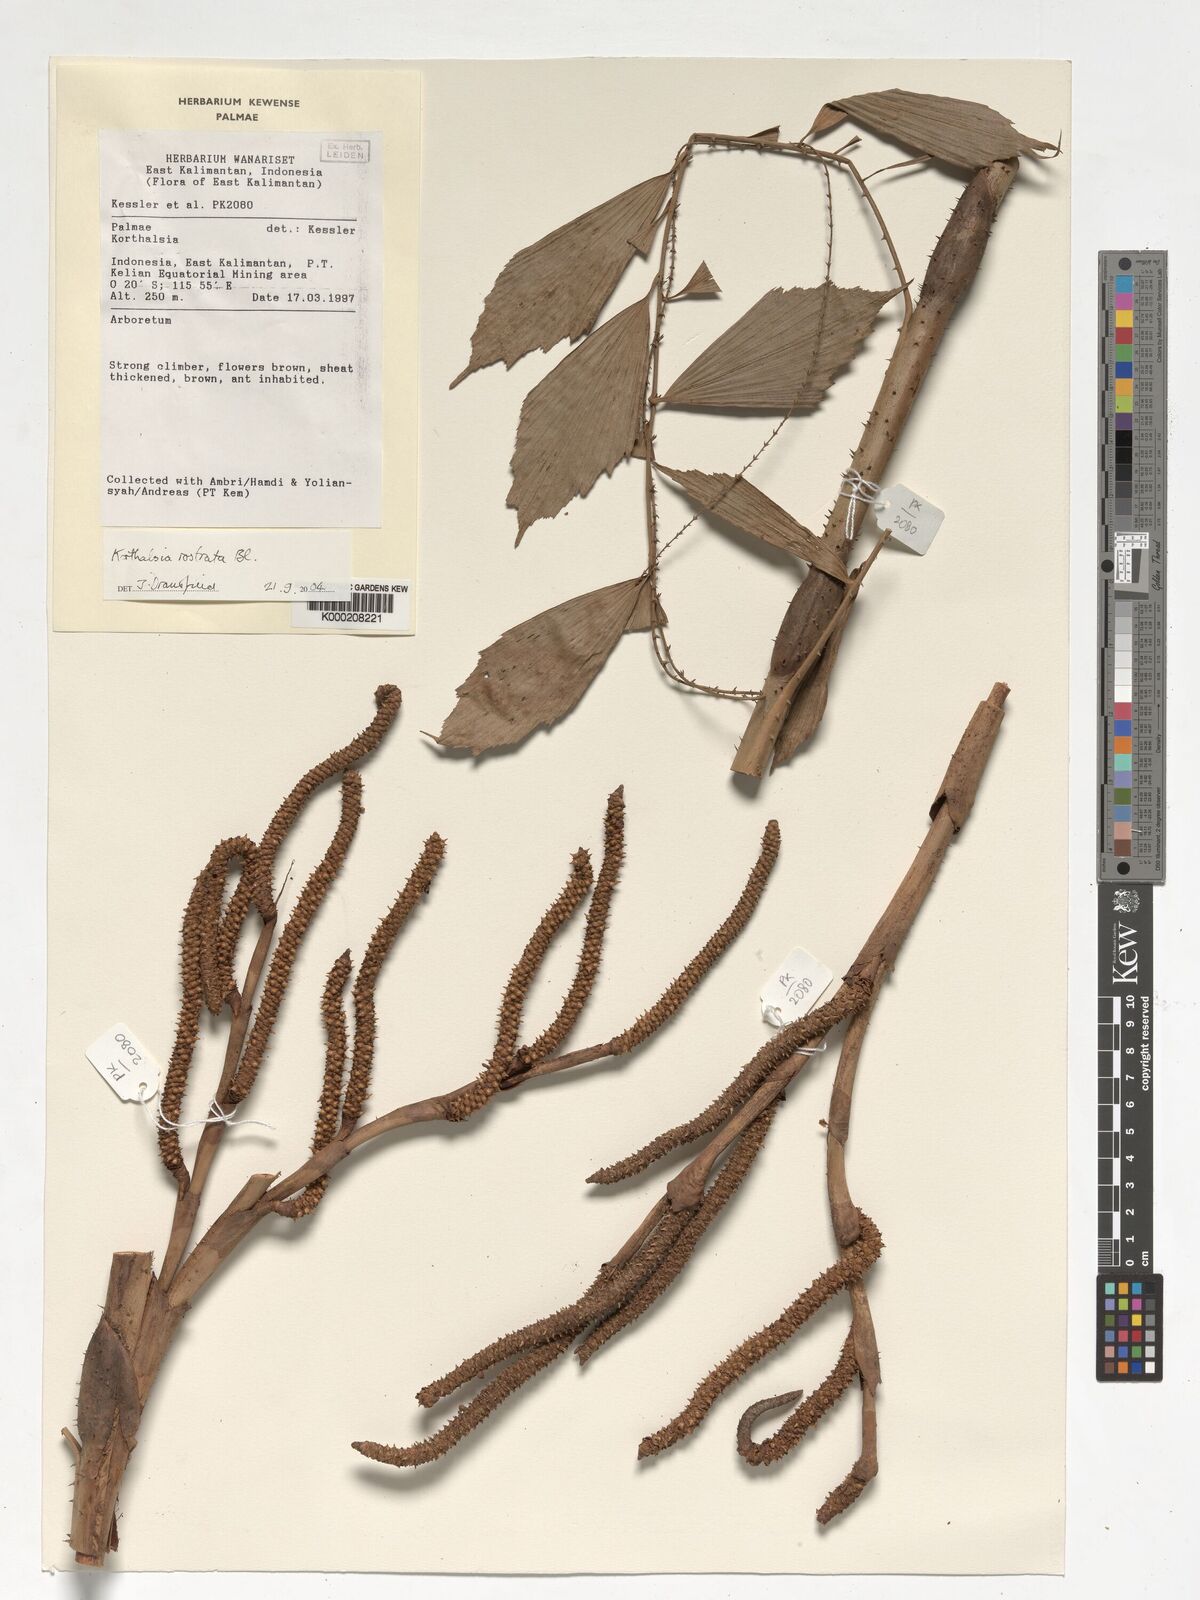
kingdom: Plantae
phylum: Tracheophyta
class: Liliopsida
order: Arecales
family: Arecaceae
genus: Korthalsia
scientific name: Korthalsia rostrata
